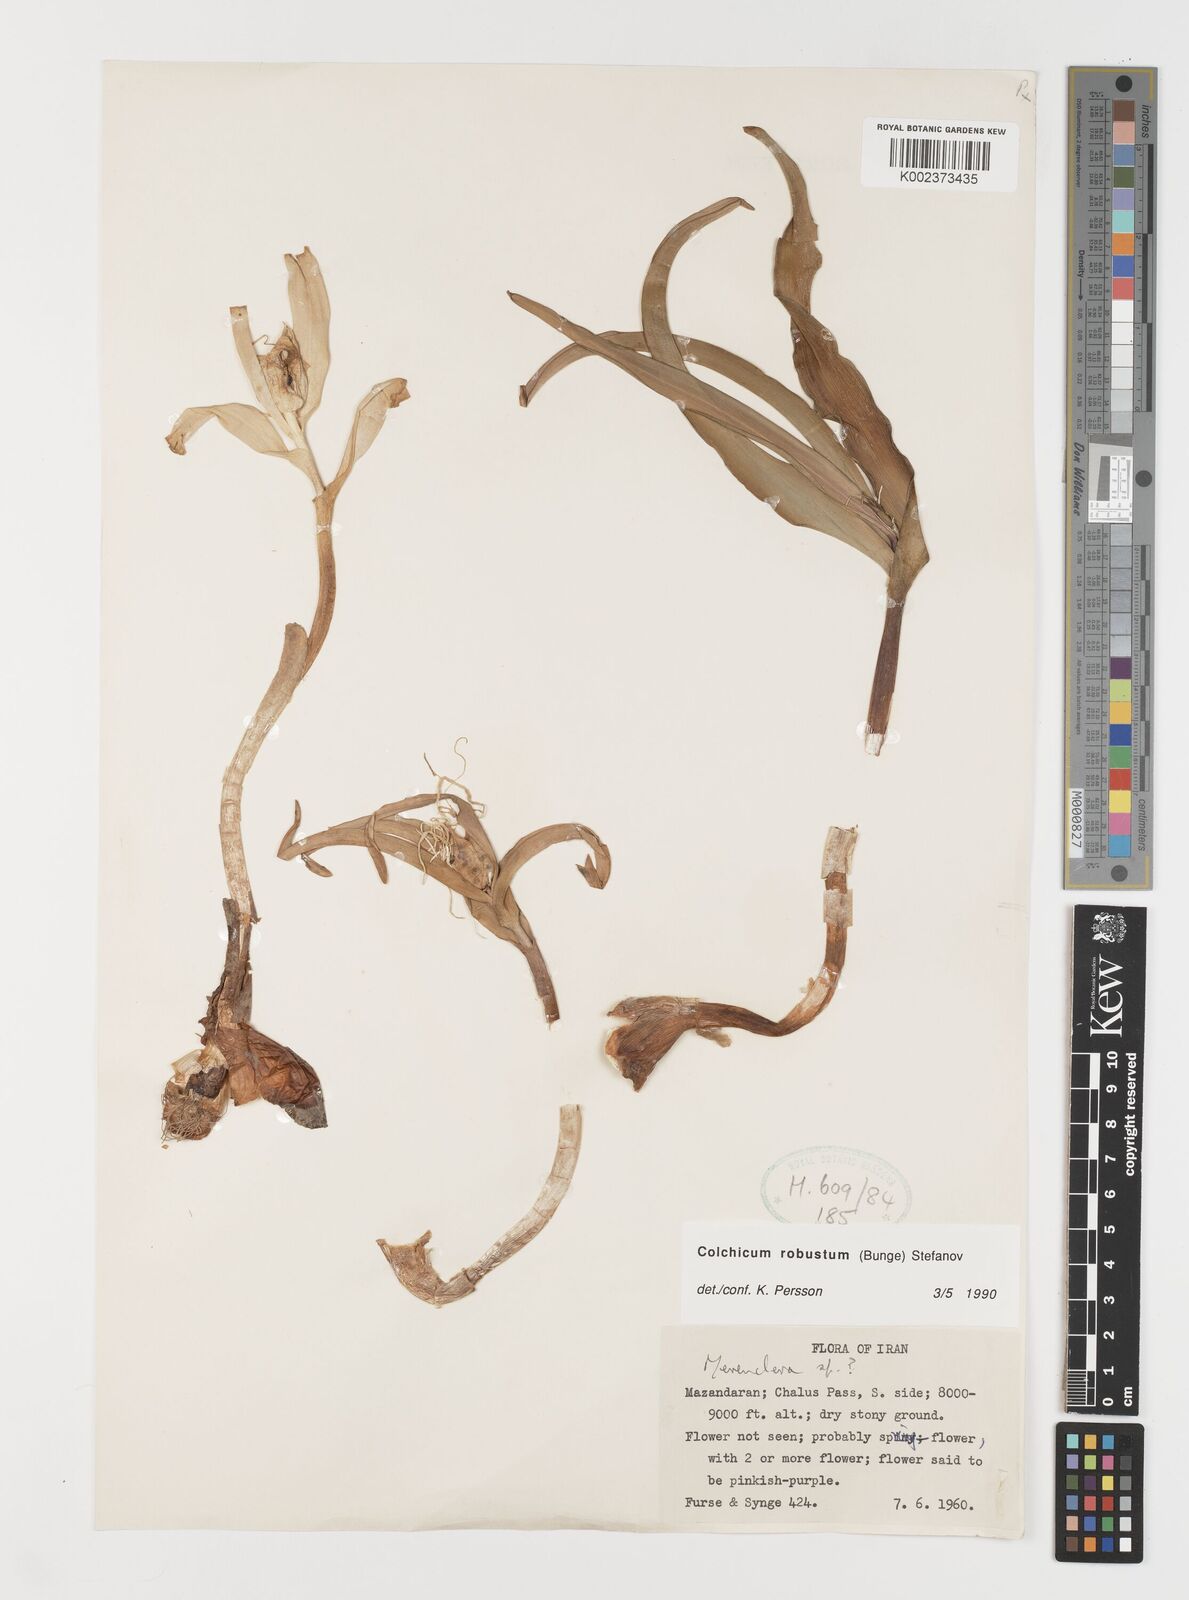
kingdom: Plantae
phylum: Tracheophyta
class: Liliopsida
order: Liliales
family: Colchicaceae
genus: Colchicum
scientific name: Colchicum robustum
